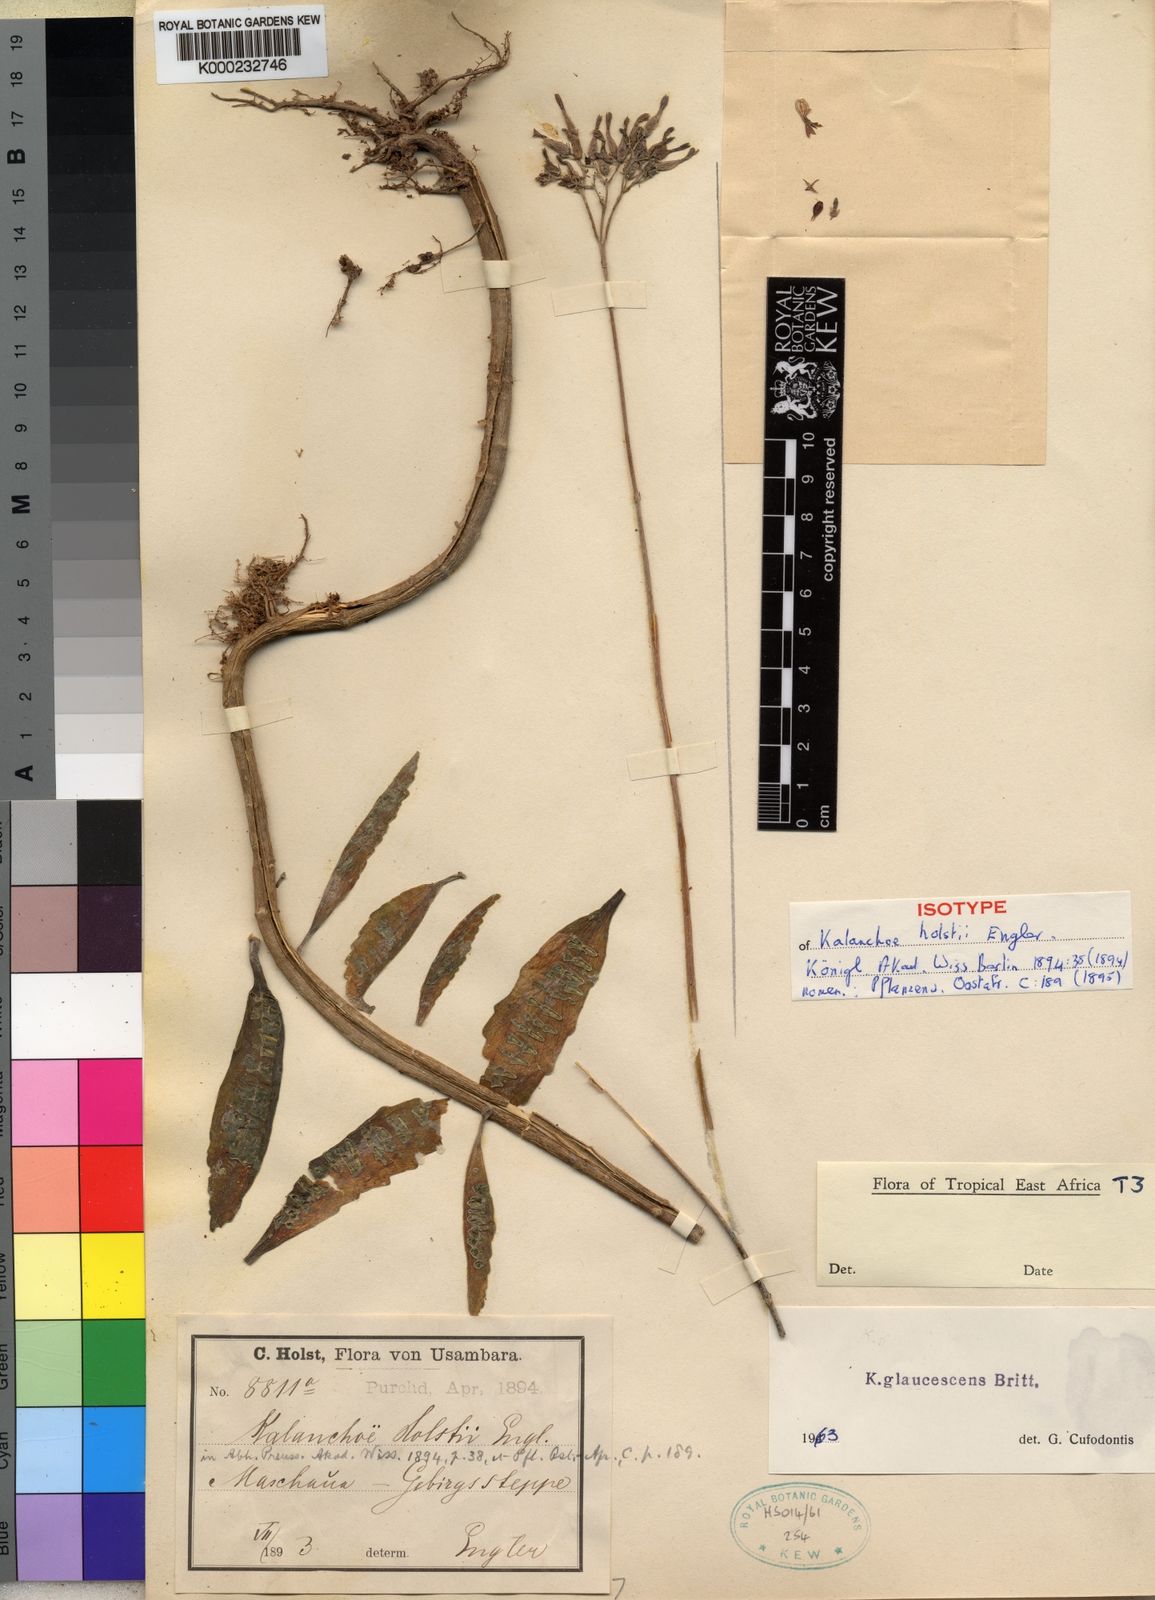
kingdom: Plantae
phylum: Tracheophyta
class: Magnoliopsida
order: Saxifragales
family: Crassulaceae
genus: Kalanchoe
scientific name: Kalanchoe glaucescens
